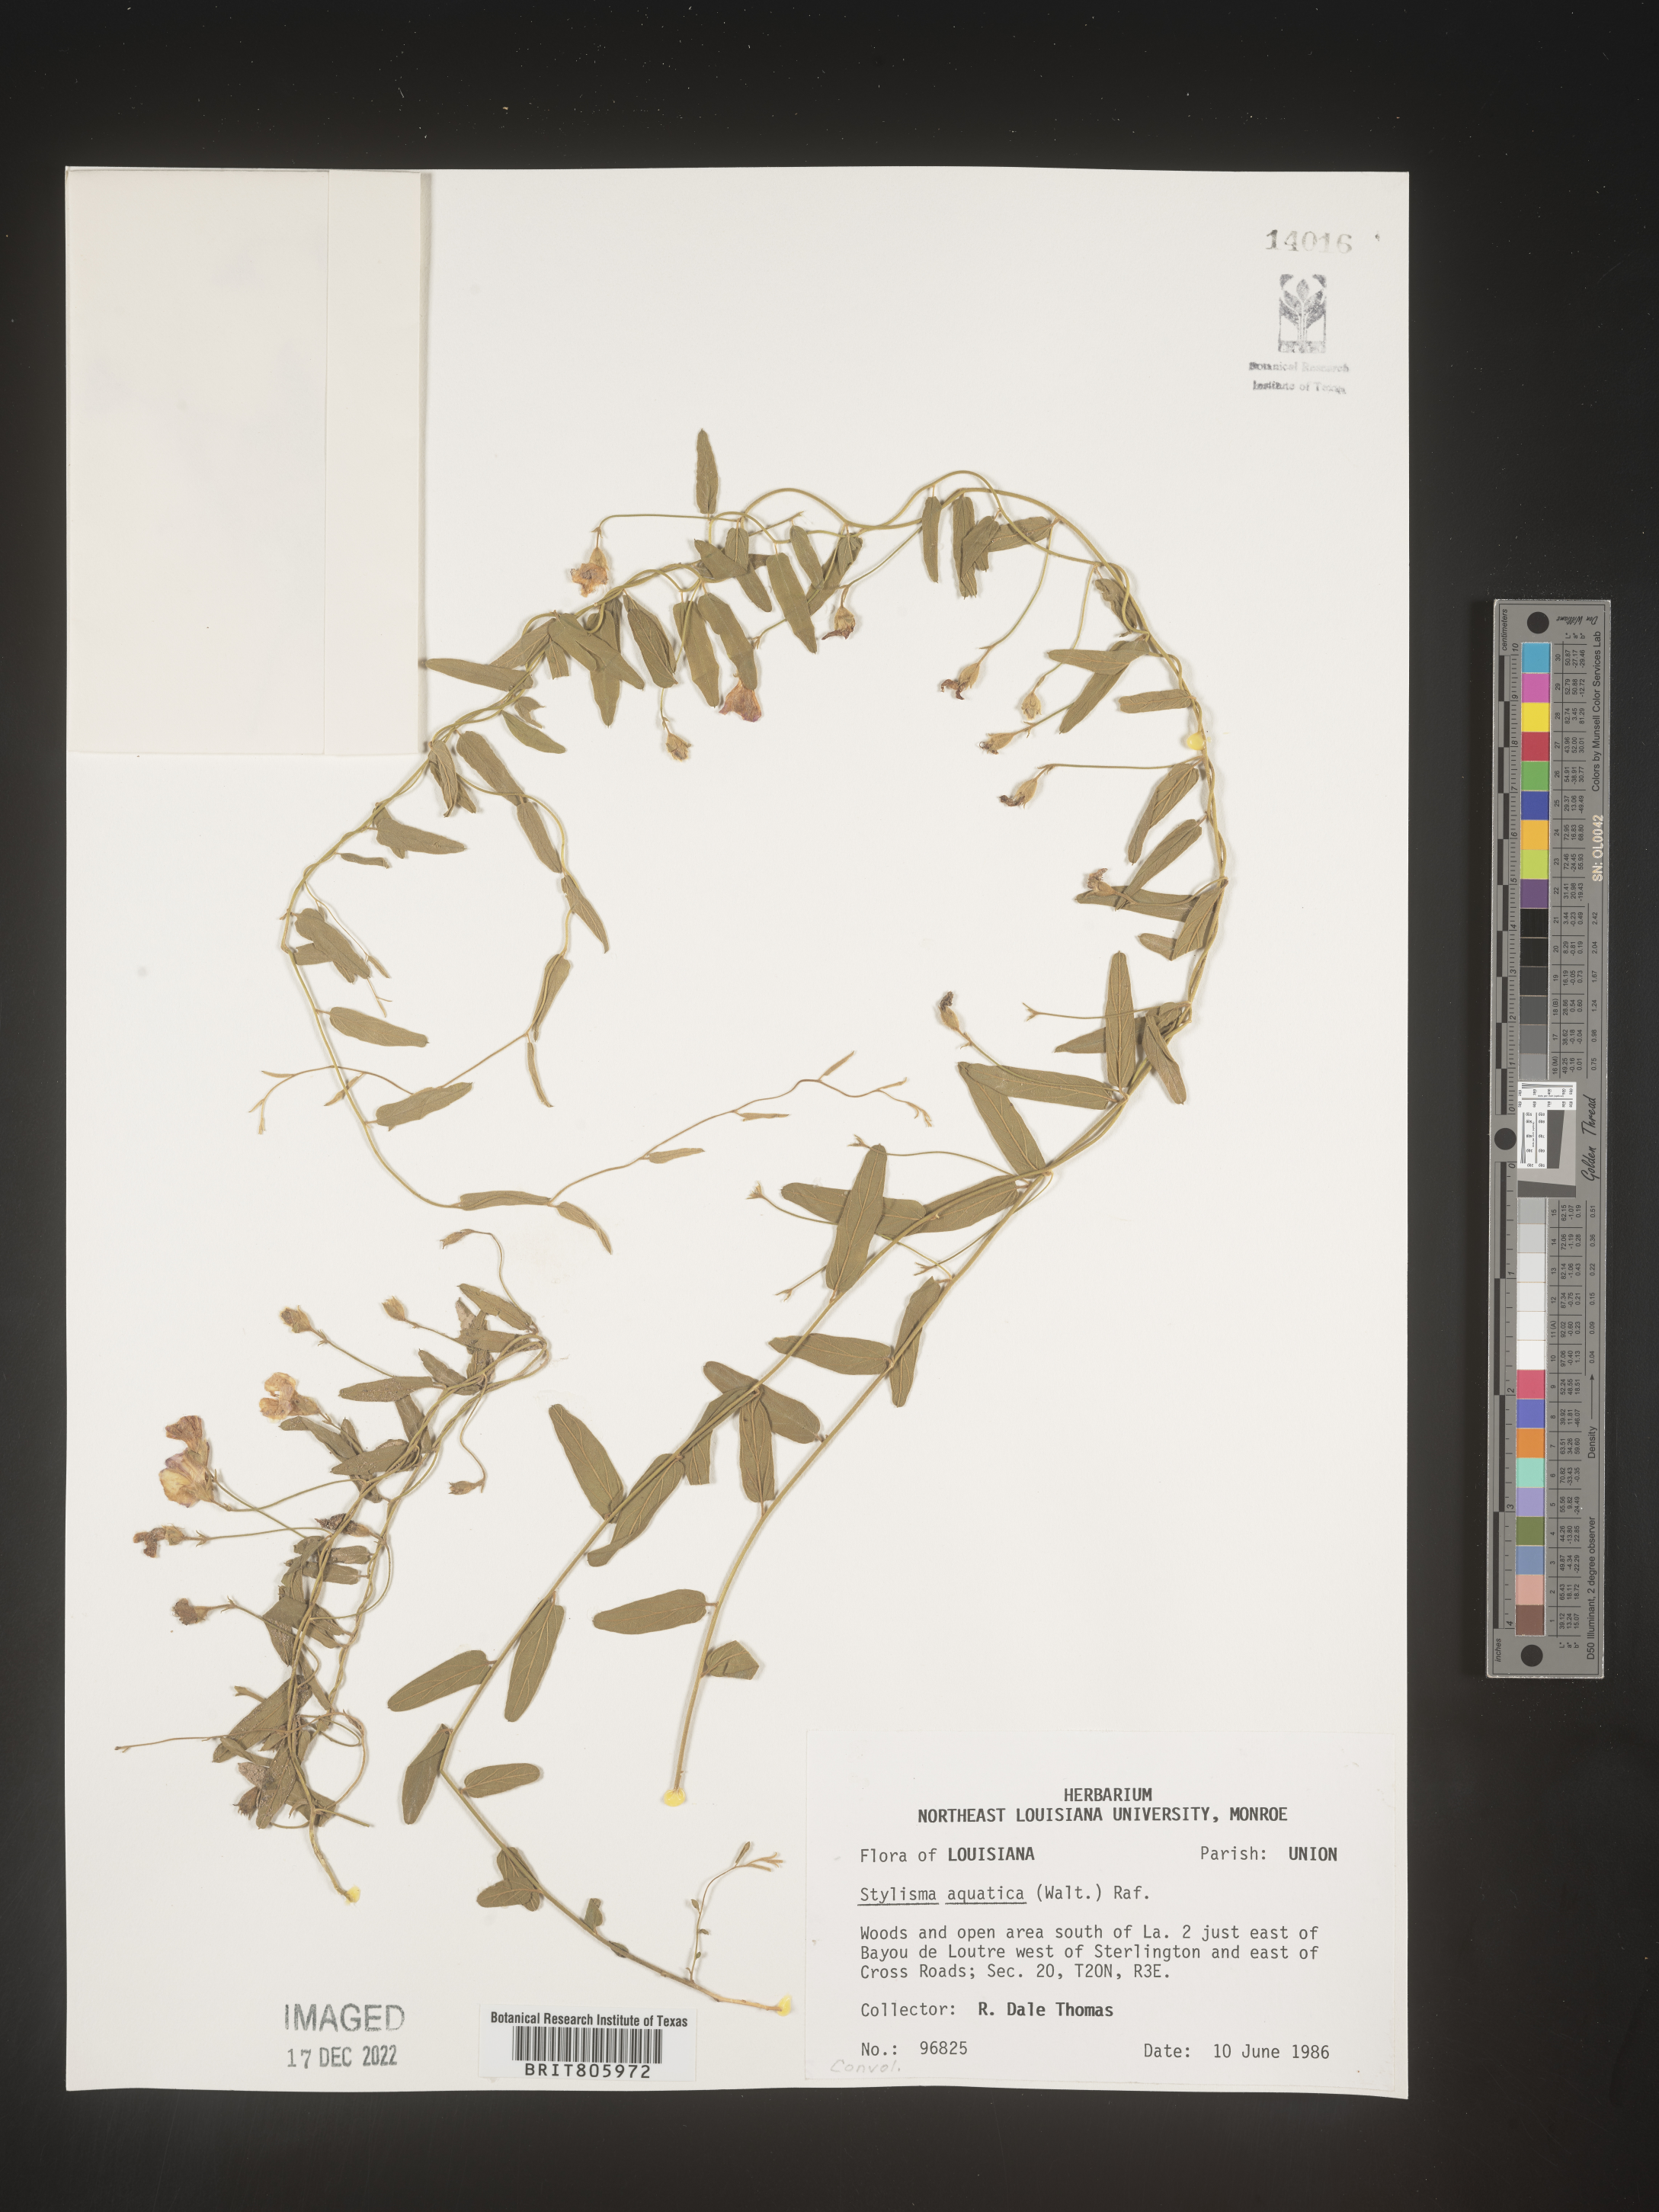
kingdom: Plantae
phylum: Tracheophyta
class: Magnoliopsida
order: Solanales
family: Convolvulaceae
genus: Stylisma
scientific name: Stylisma
